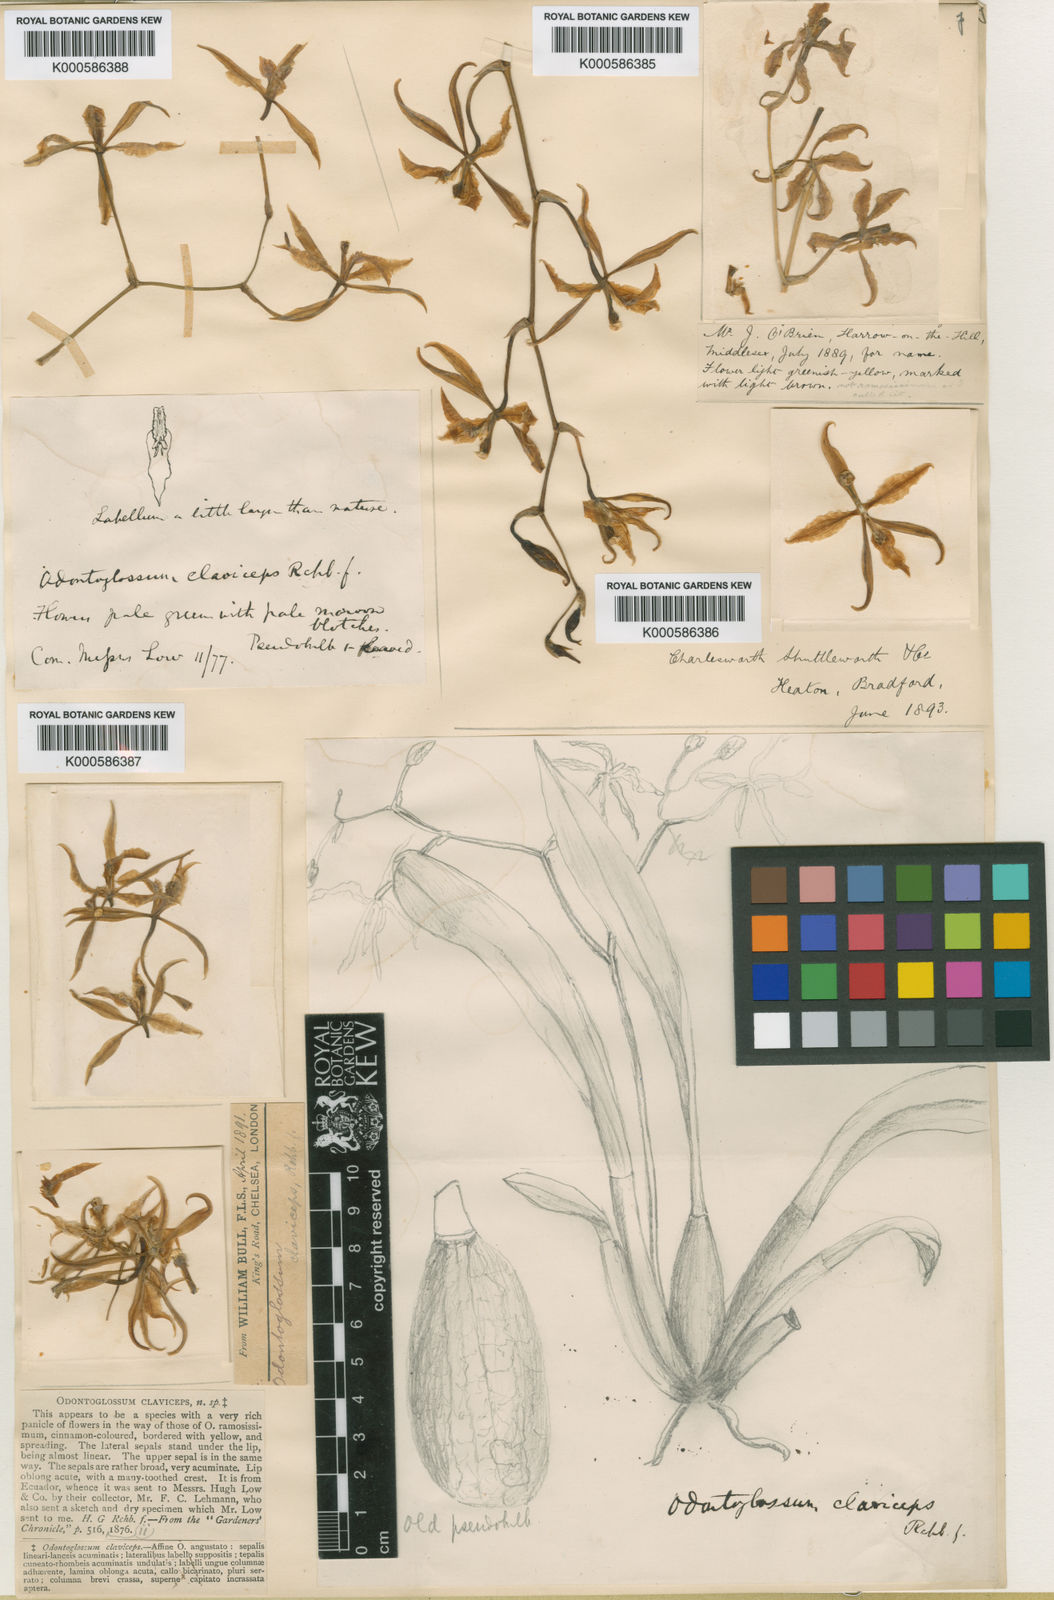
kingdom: Plantae
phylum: Tracheophyta
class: Liliopsida
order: Asparagales
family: Orchidaceae
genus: Cyrtochilum
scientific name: Cyrtochilum
